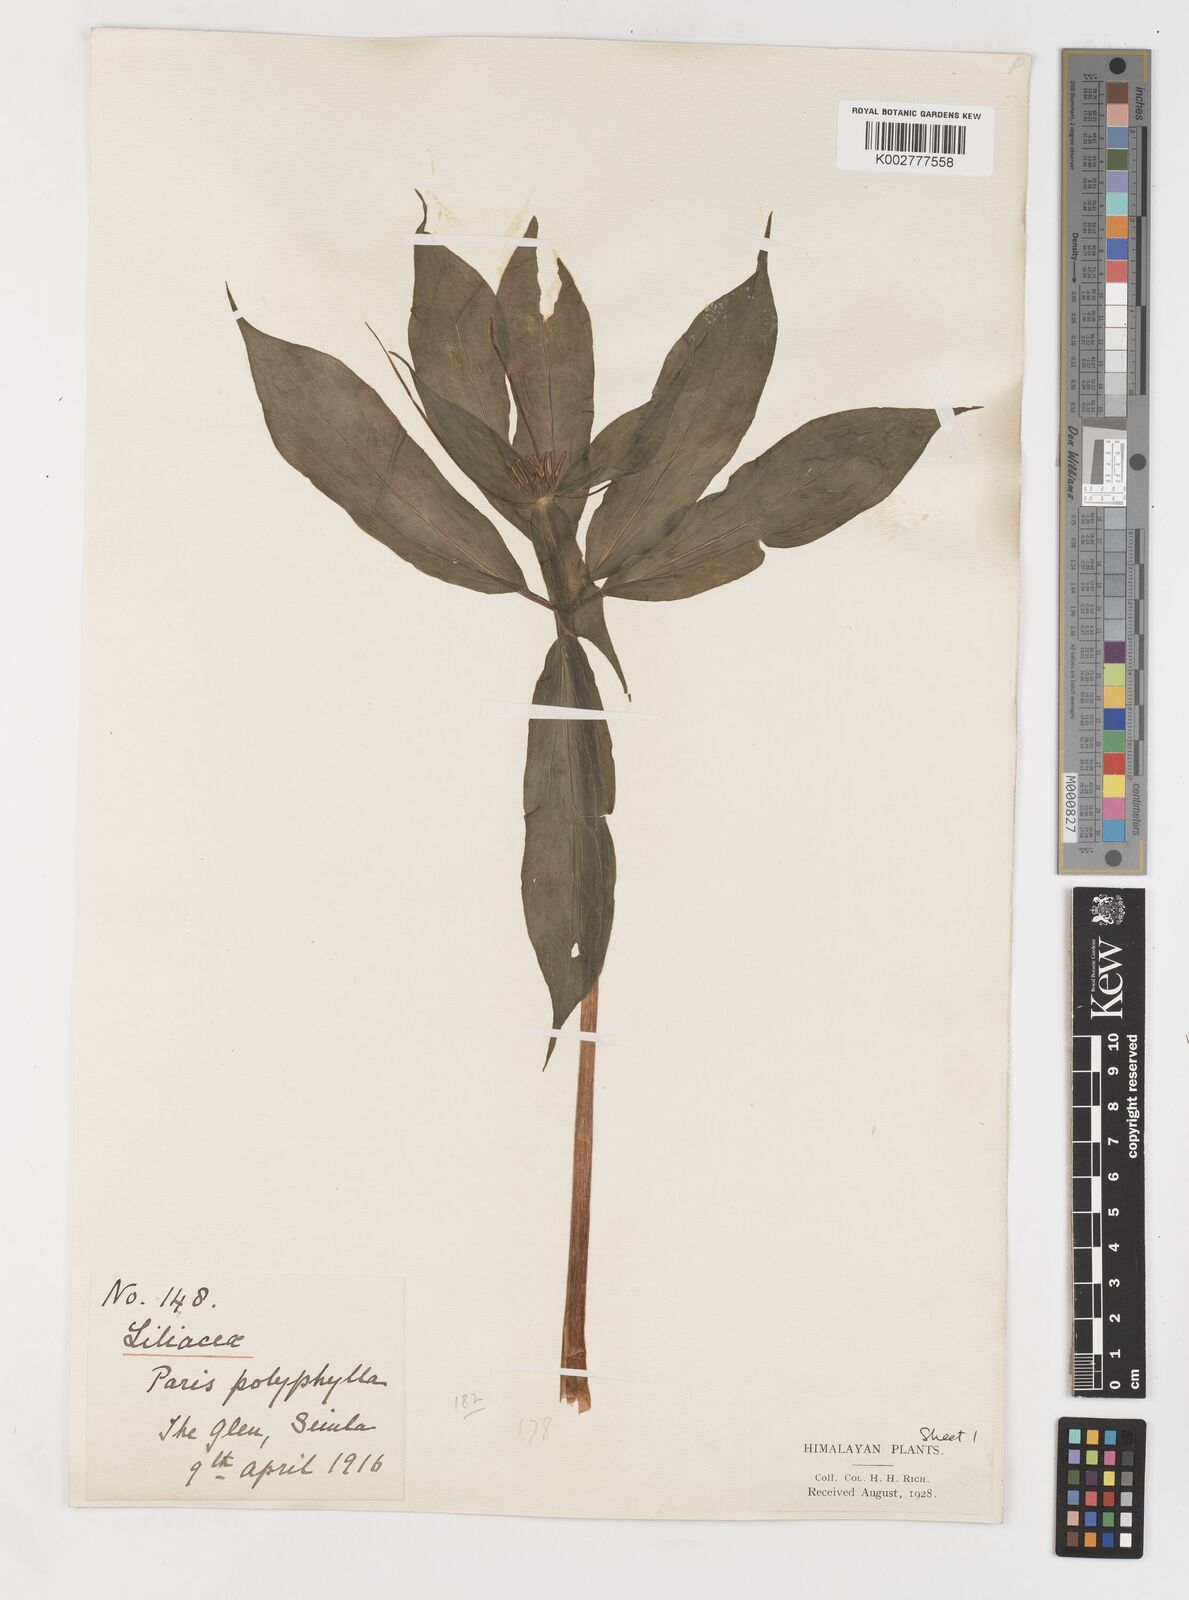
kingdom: Plantae
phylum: Tracheophyta
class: Liliopsida
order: Liliales
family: Melanthiaceae
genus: Paris
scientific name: Paris polyphylla
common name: Love apple
